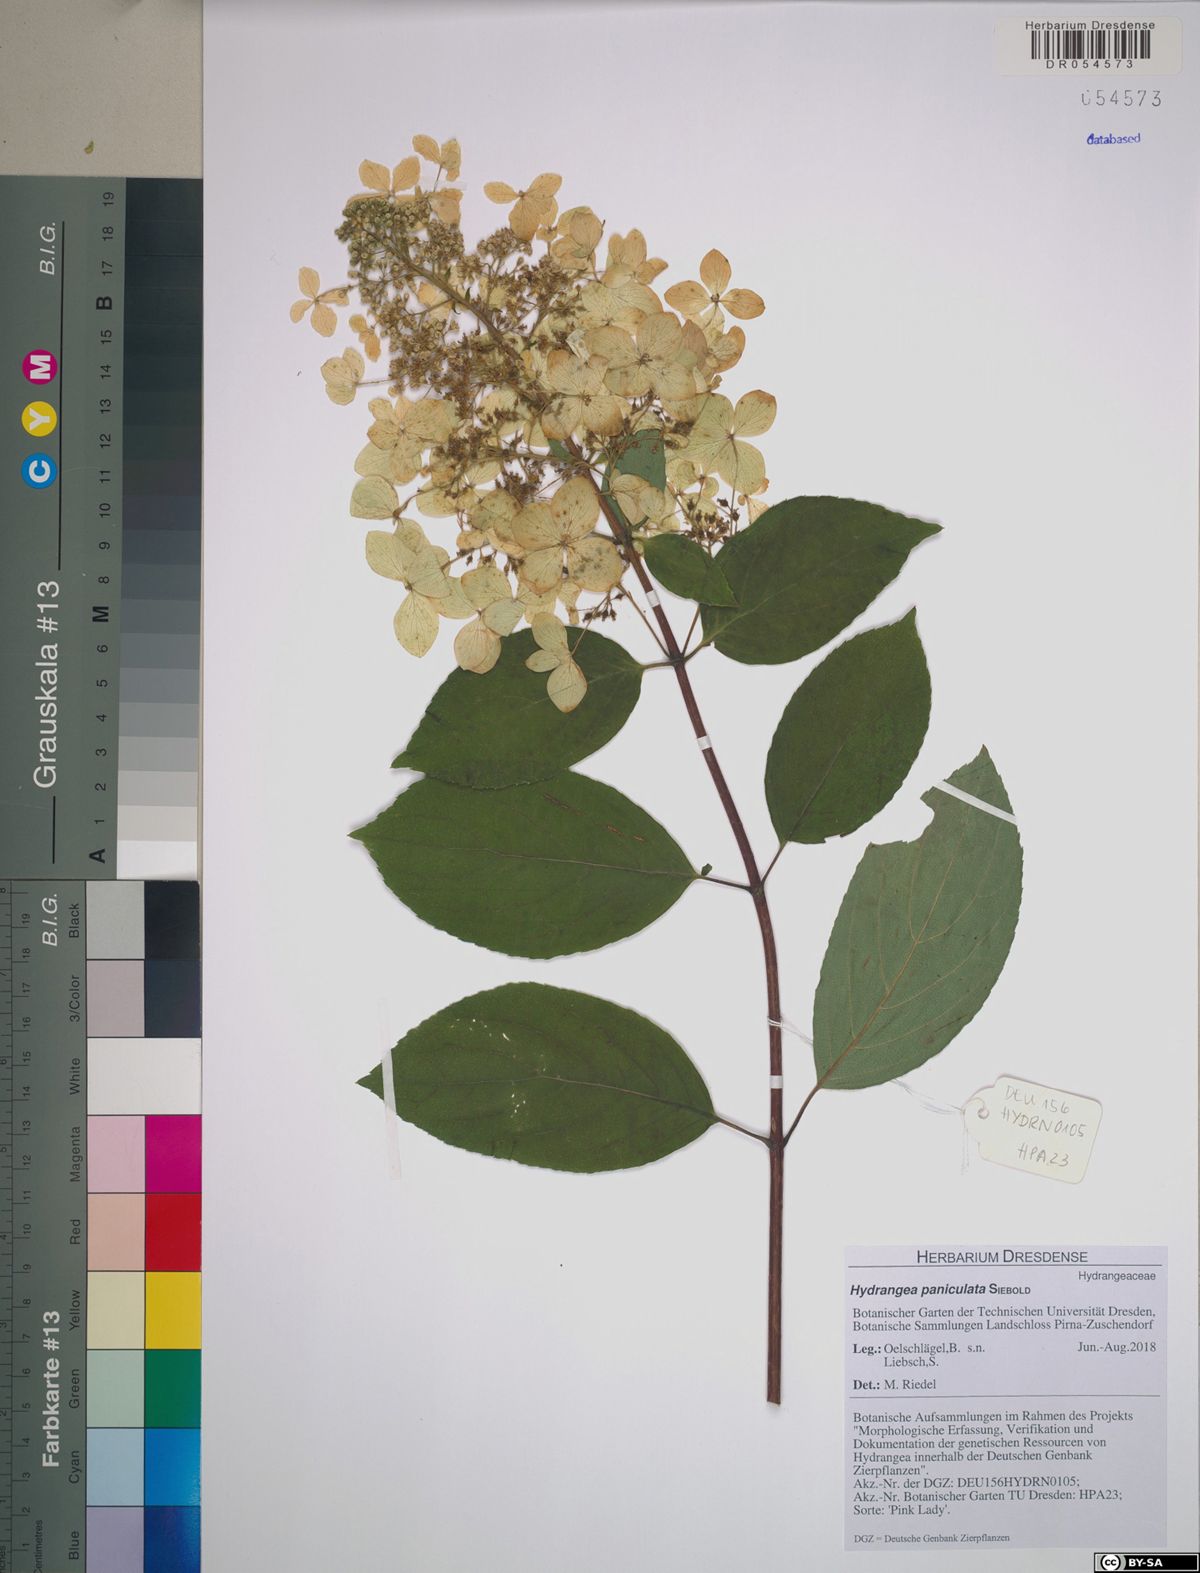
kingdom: Plantae
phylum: Tracheophyta
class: Magnoliopsida
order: Cornales
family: Hydrangeaceae
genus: Hydrangea
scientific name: Hydrangea paniculata
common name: Panicled hydrangea
